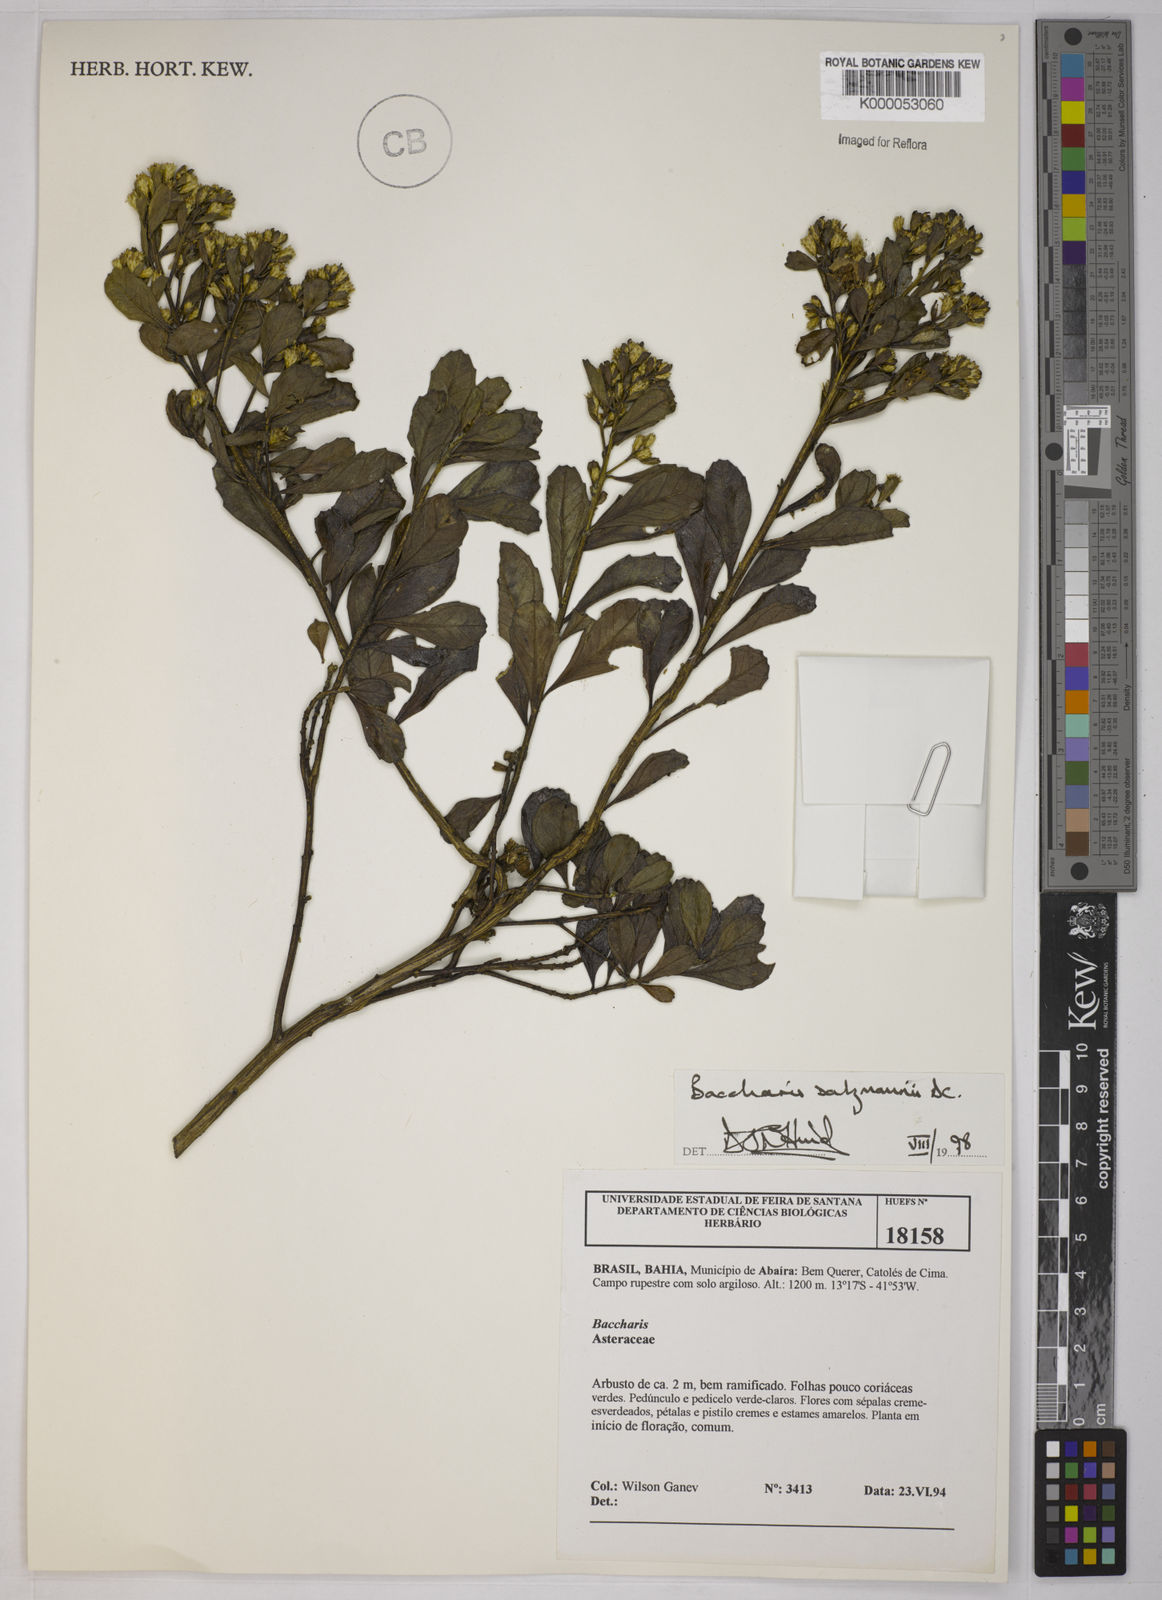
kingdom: Plantae
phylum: Tracheophyta
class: Magnoliopsida
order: Asterales
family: Asteraceae
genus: Baccharis
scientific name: Baccharis retusa
